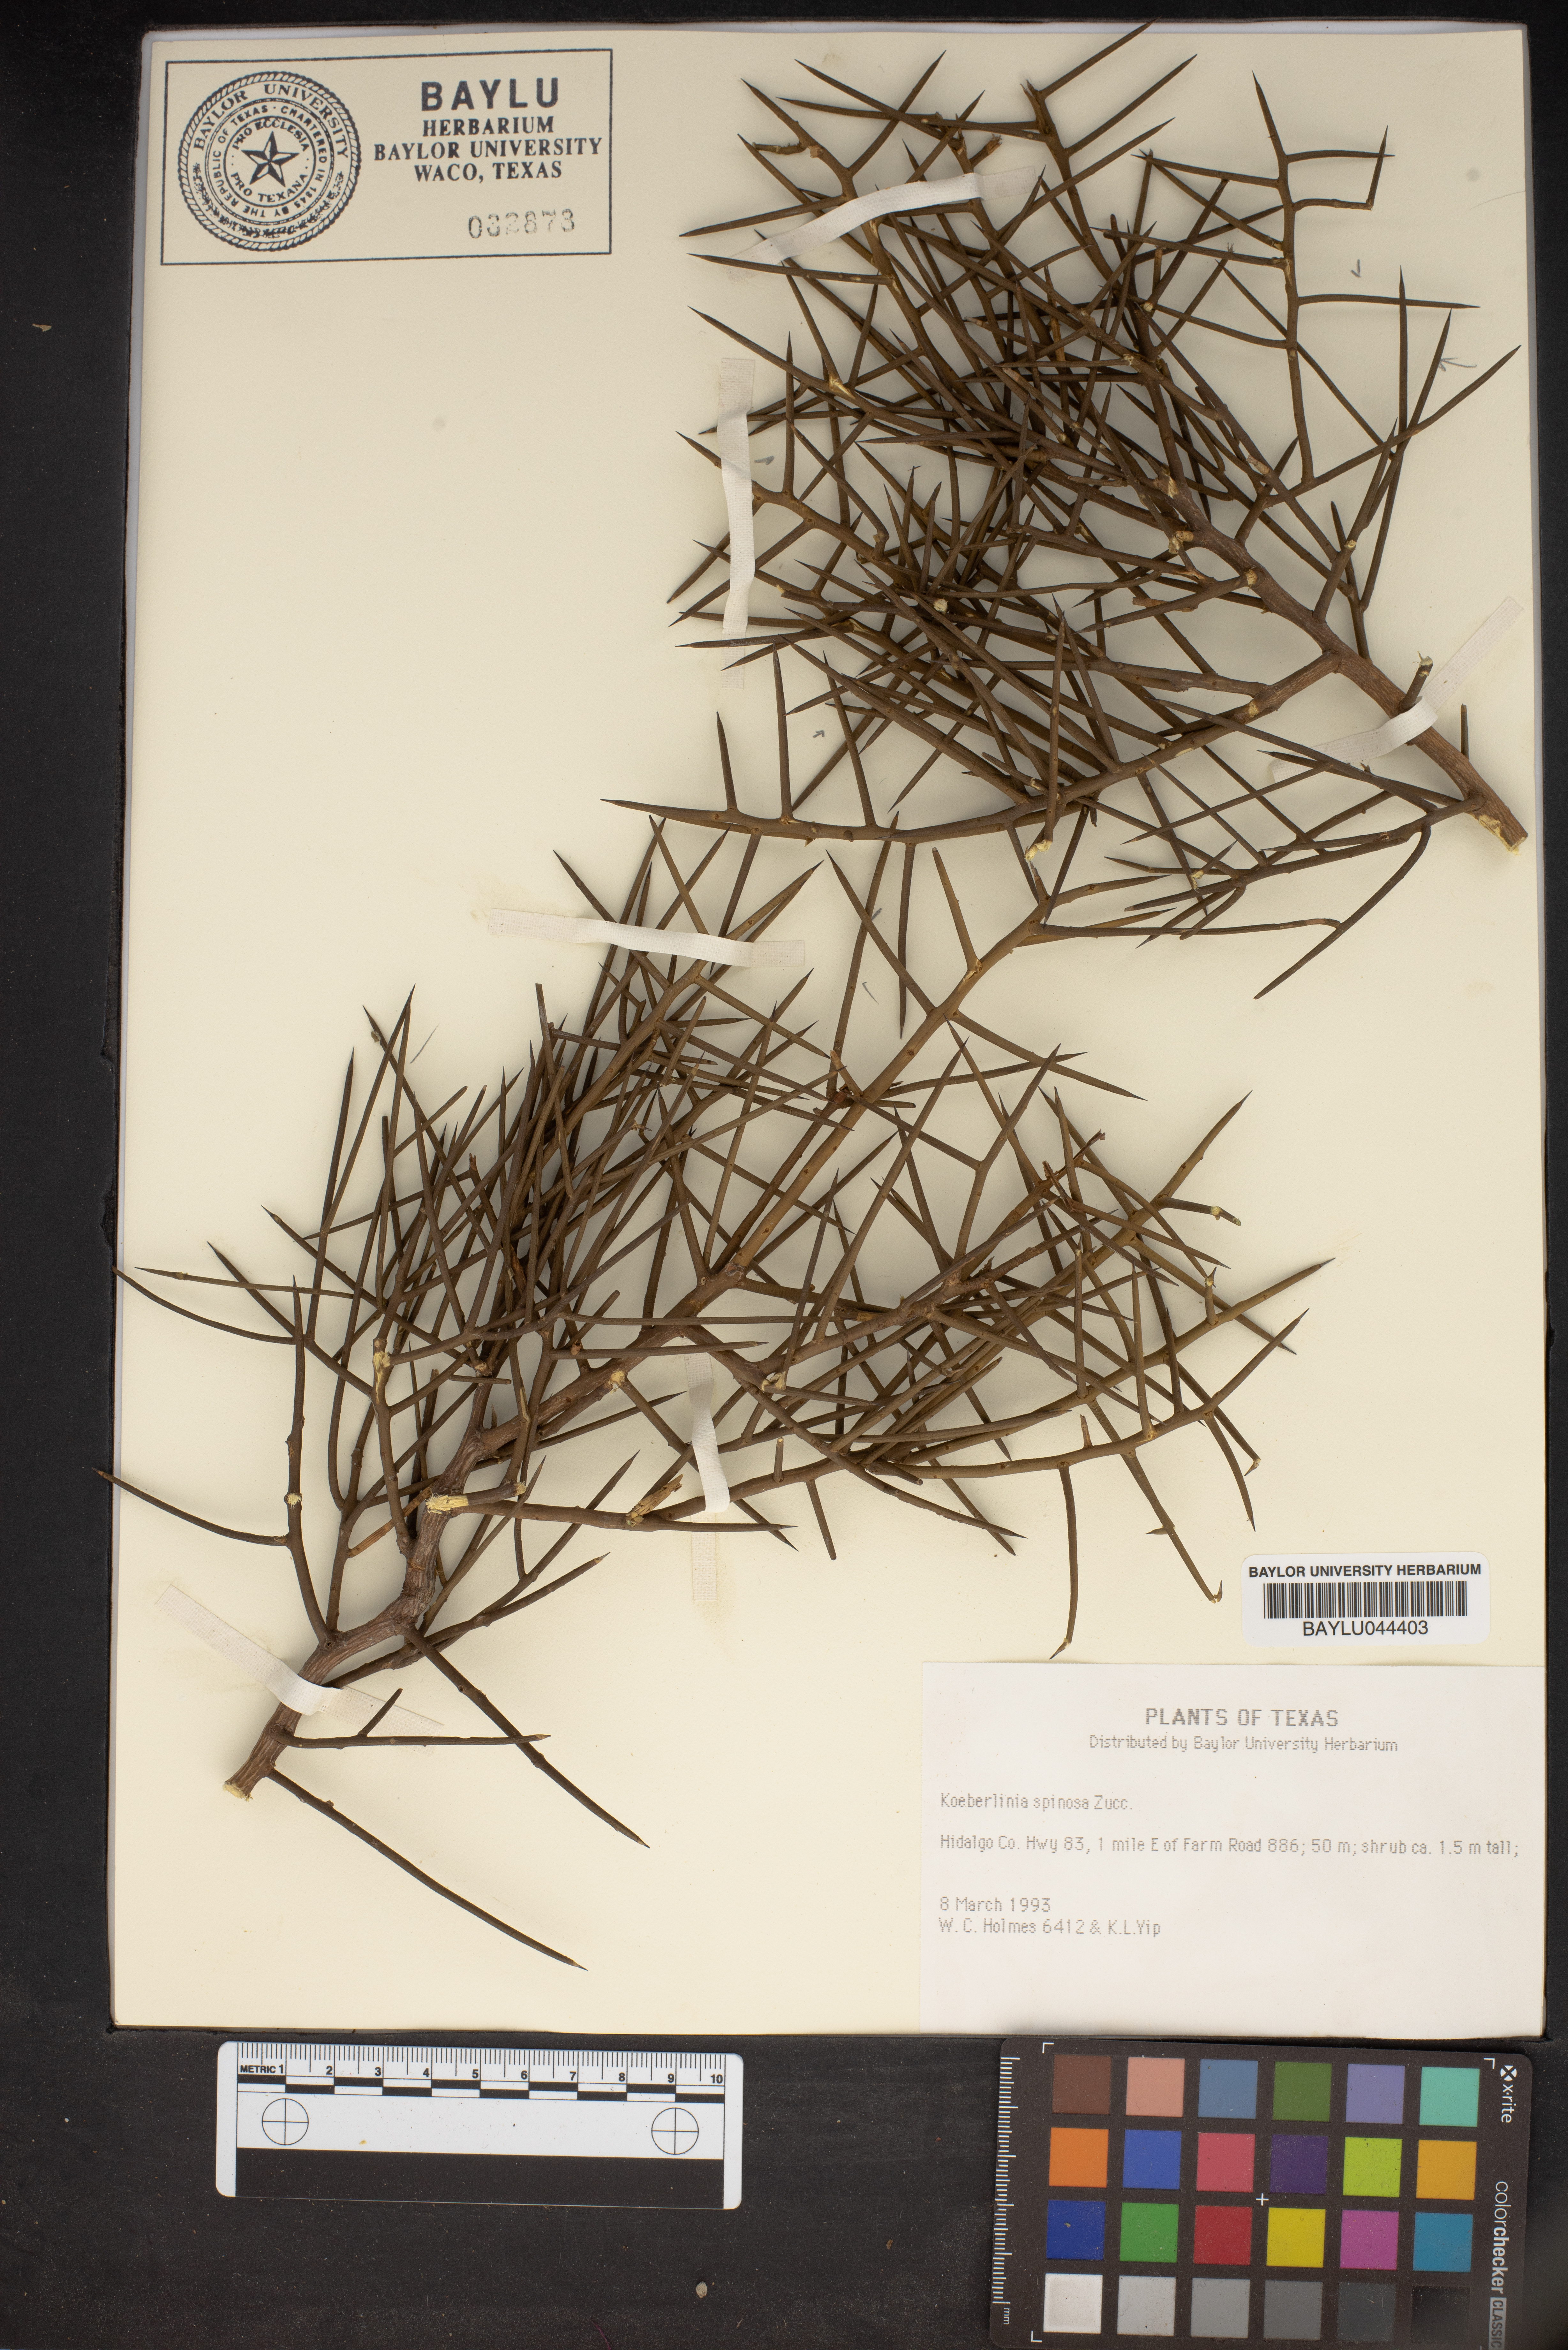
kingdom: Plantae
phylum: Tracheophyta
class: Magnoliopsida
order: Brassicales
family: Koeberliniaceae
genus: Koeberlinia
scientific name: Koeberlinia spinosa
